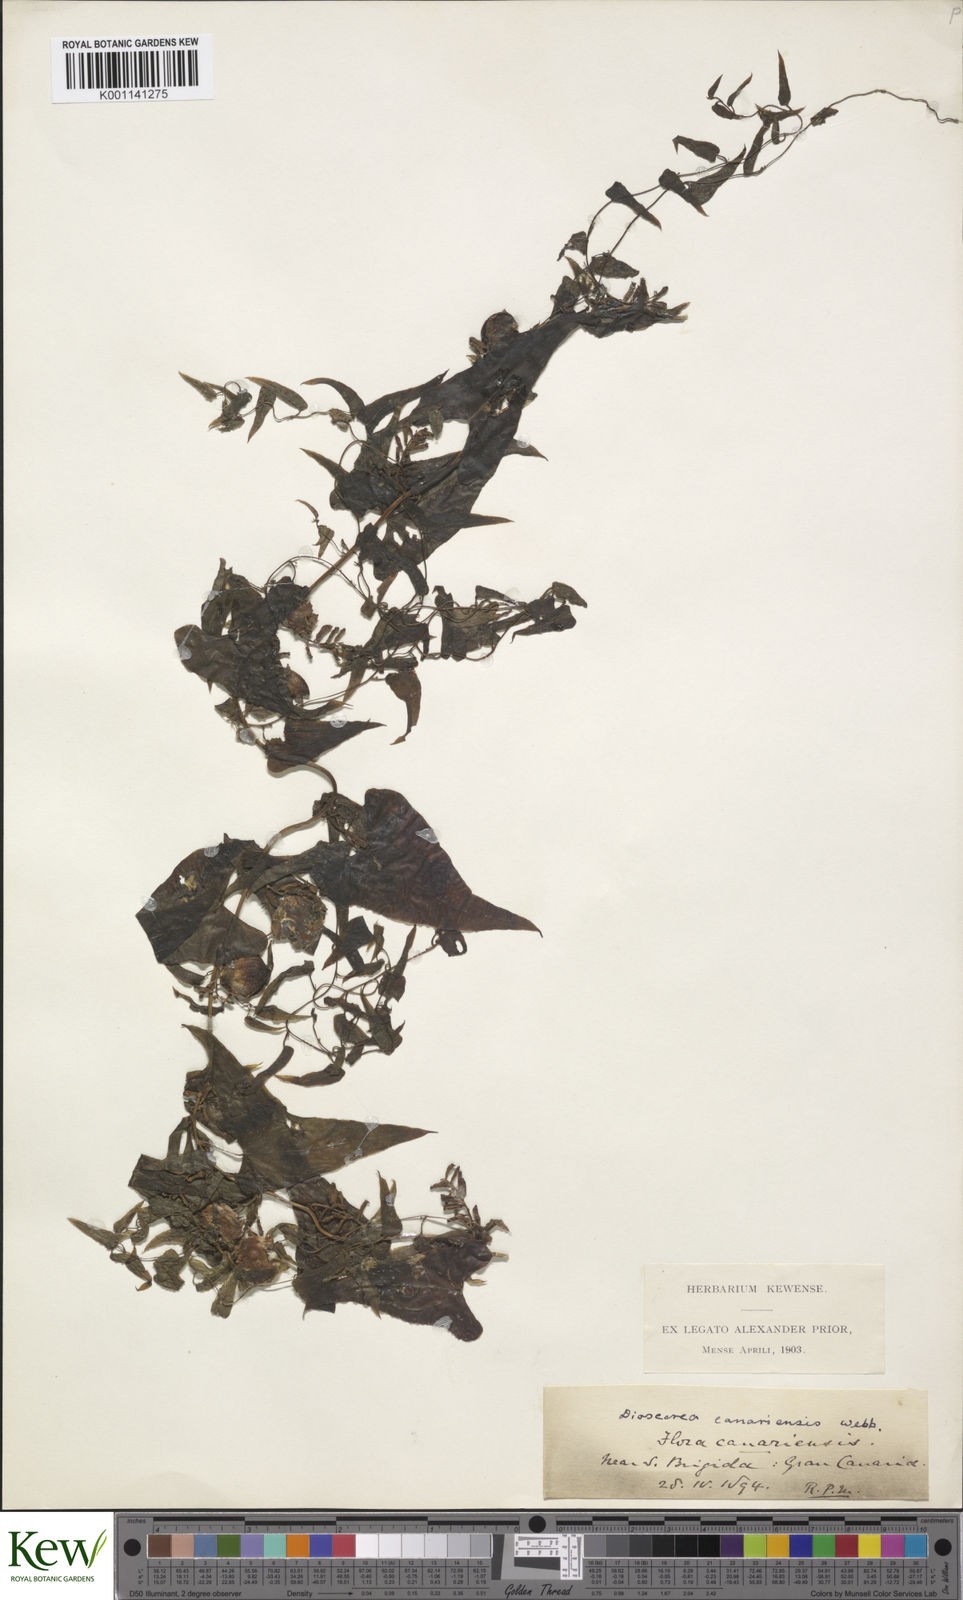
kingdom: Plantae
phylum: Tracheophyta
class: Liliopsida
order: Dioscoreales
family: Dioscoreaceae
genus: Dioscorea
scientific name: Dioscorea
